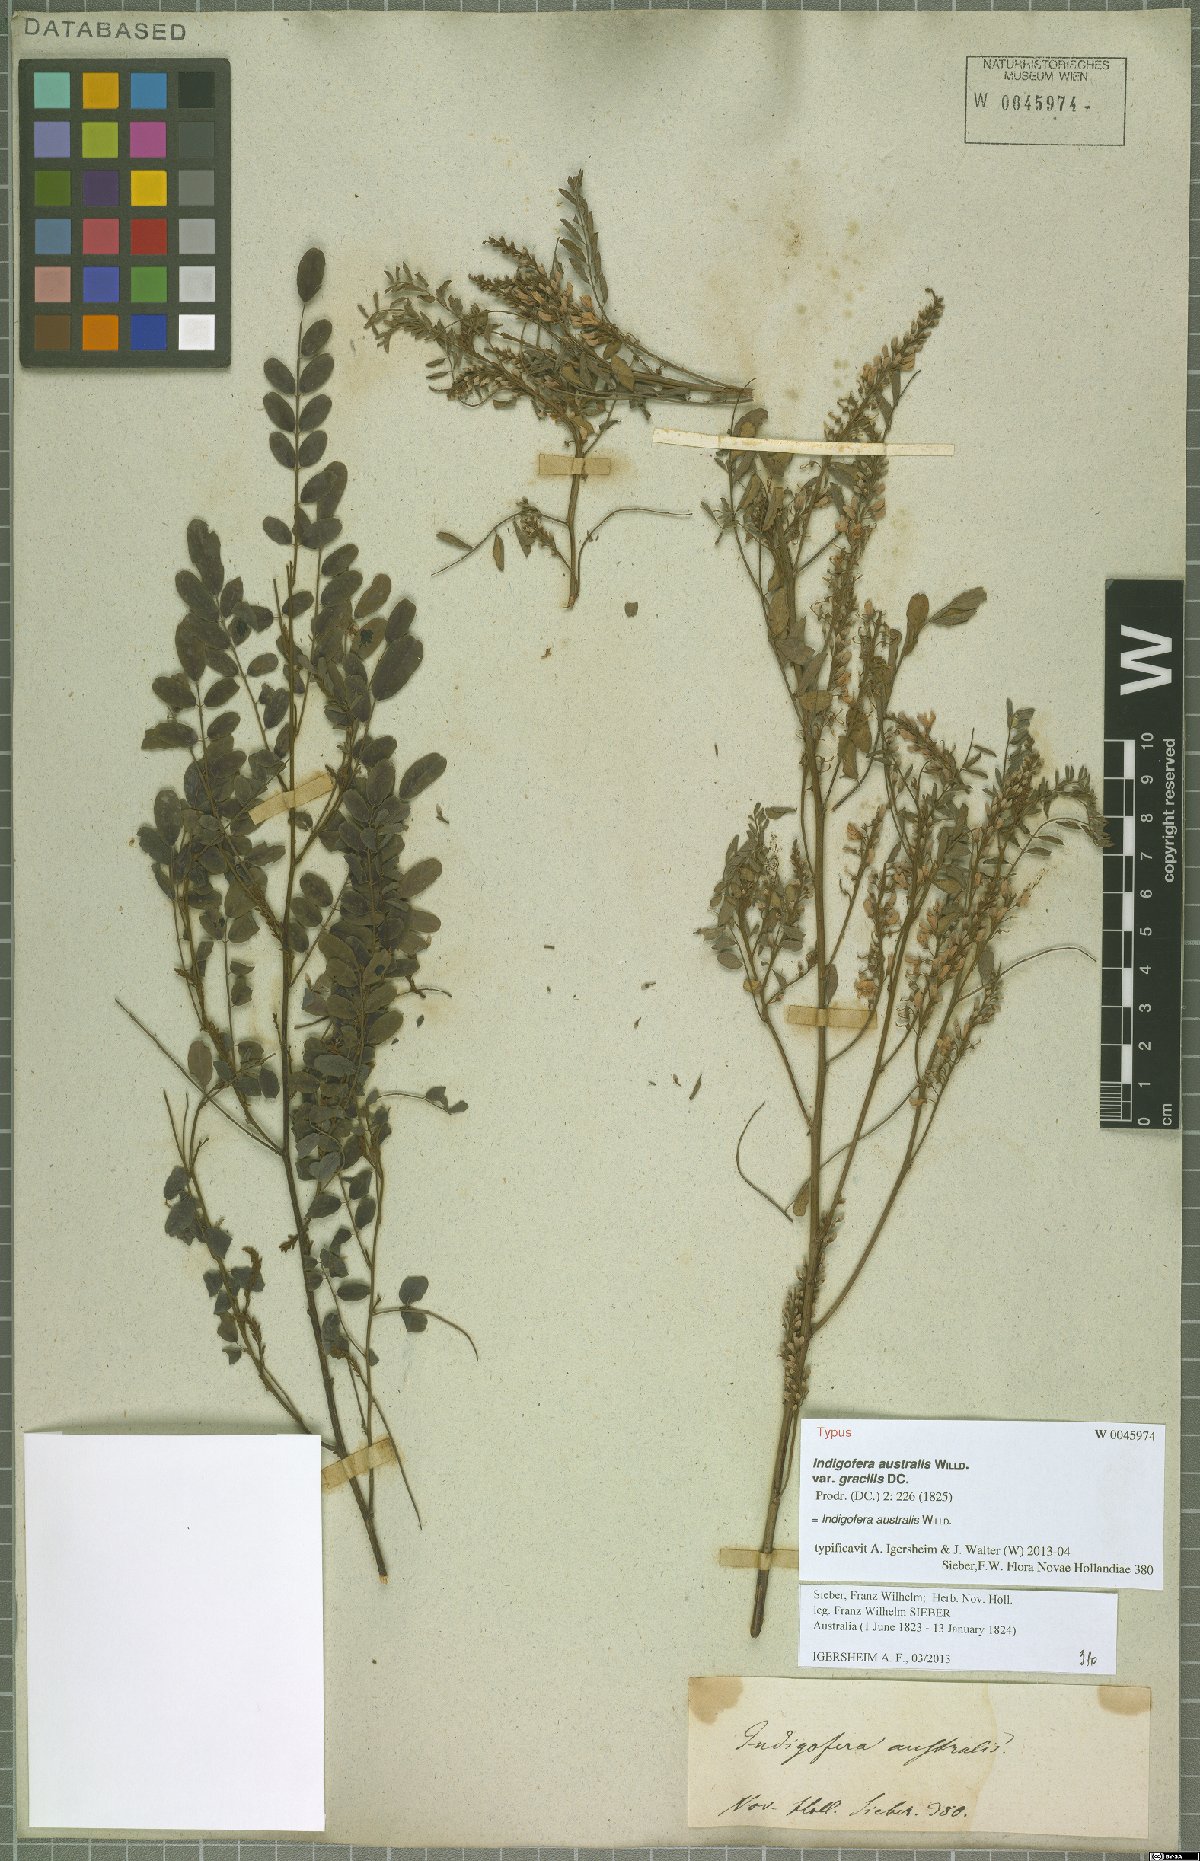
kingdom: Plantae
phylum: Tracheophyta
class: Magnoliopsida
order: Fabales
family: Fabaceae
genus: Indigofera
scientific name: Indigofera australis
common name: Australian indigo
